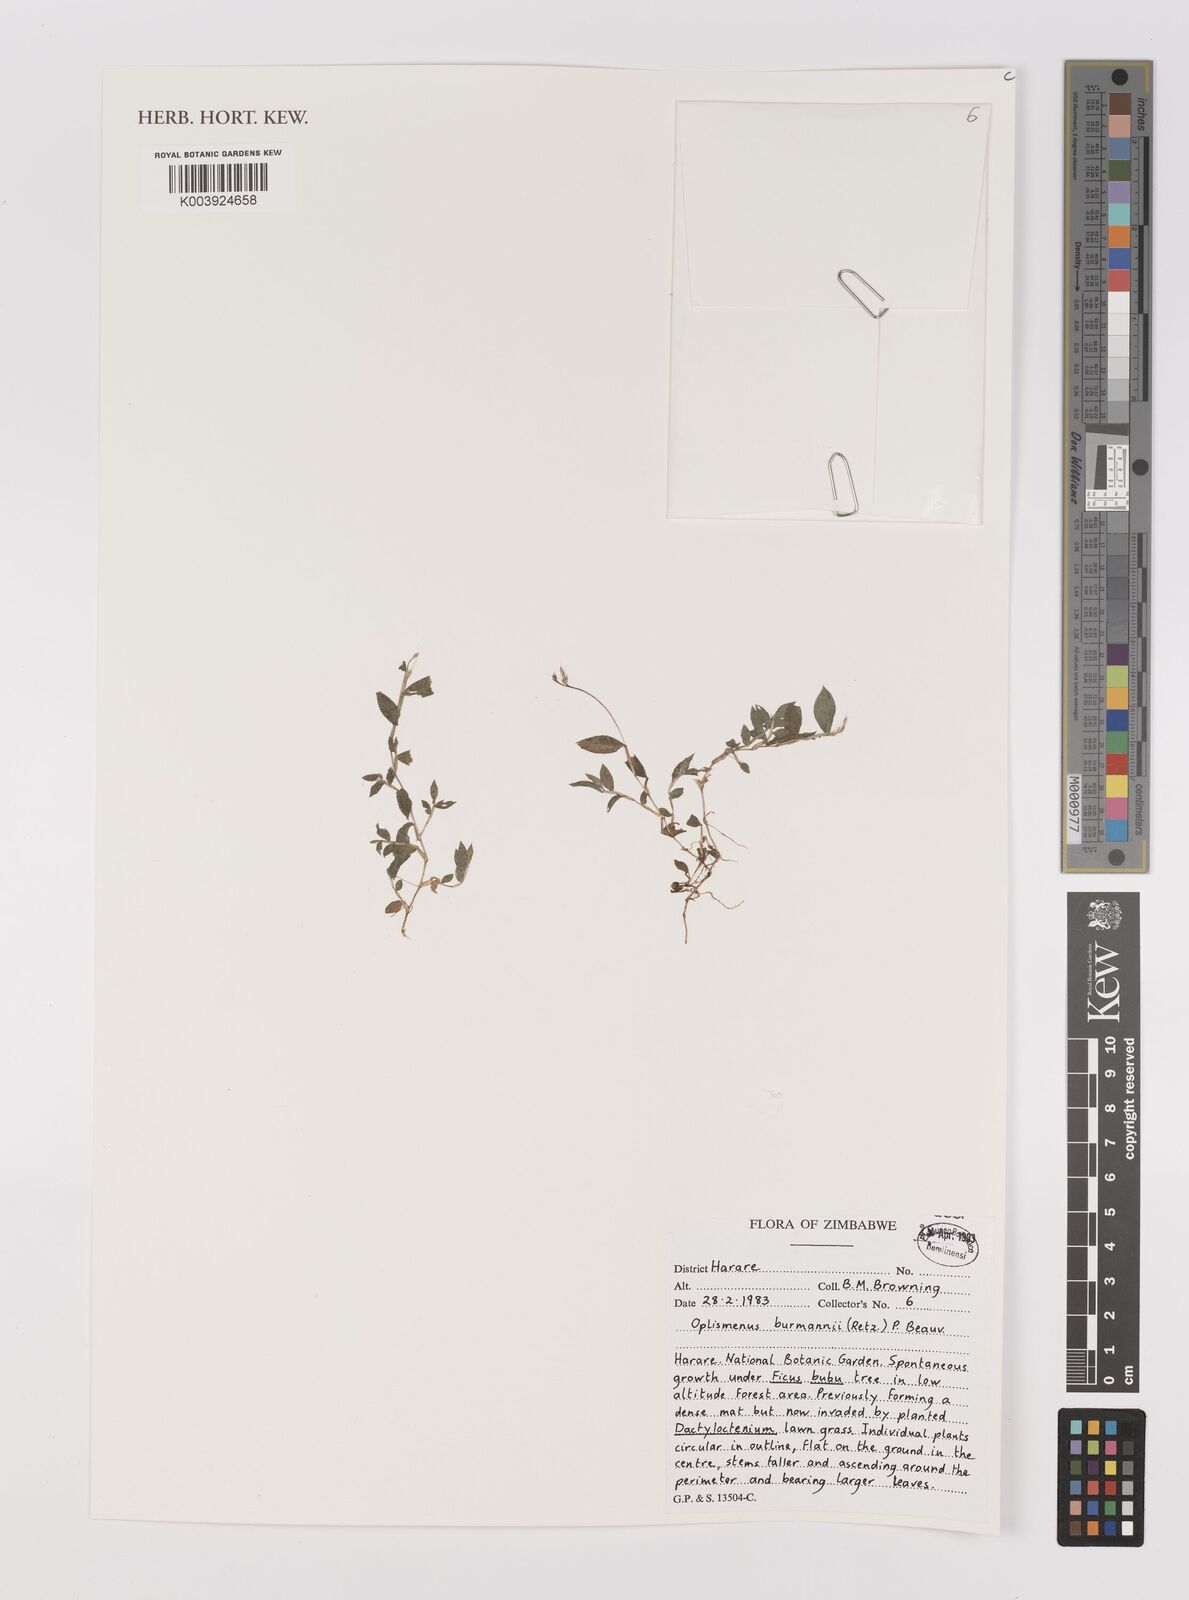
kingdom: Plantae
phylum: Tracheophyta
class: Liliopsida
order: Poales
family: Poaceae
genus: Oplismenus
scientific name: Oplismenus burmanni
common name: Burmann's basketgrass
